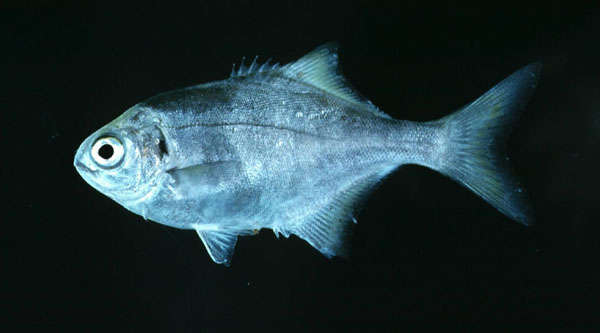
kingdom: Animalia
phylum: Chordata
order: Perciformes
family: Kyphosidae
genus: Neoscorpis
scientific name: Neoscorpis lithophilus
